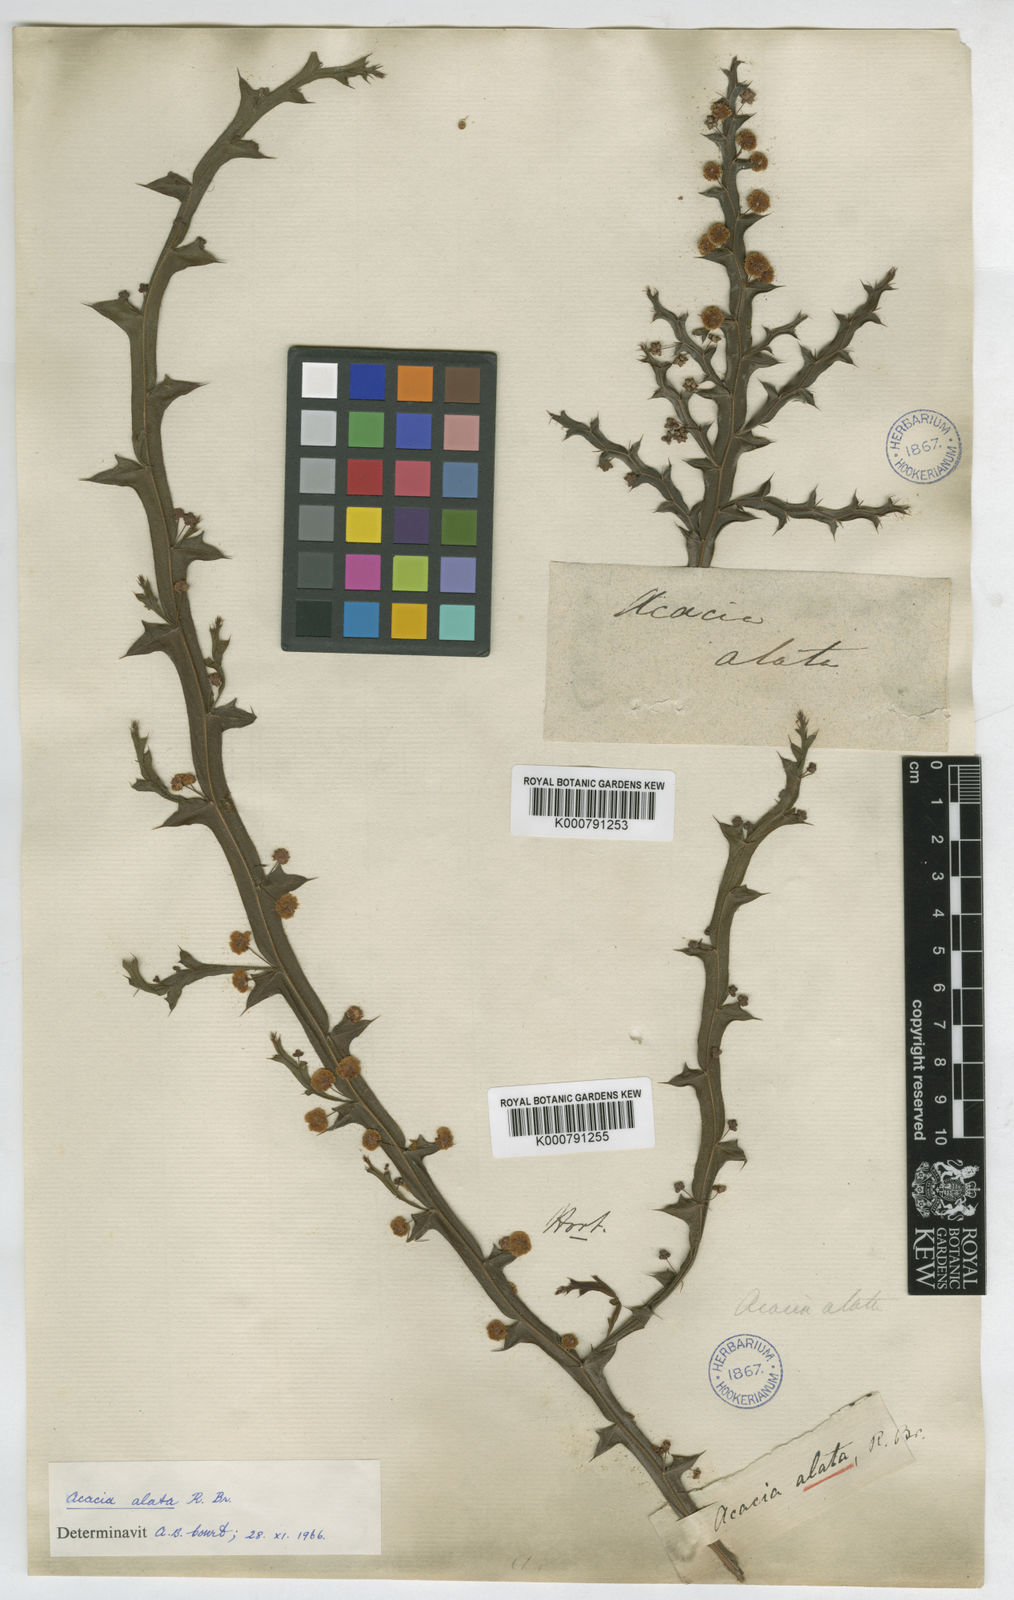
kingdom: Plantae
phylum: Tracheophyta
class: Magnoliopsida
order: Fabales
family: Fabaceae
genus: Acacia
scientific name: Acacia alata
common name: Winged wattle
